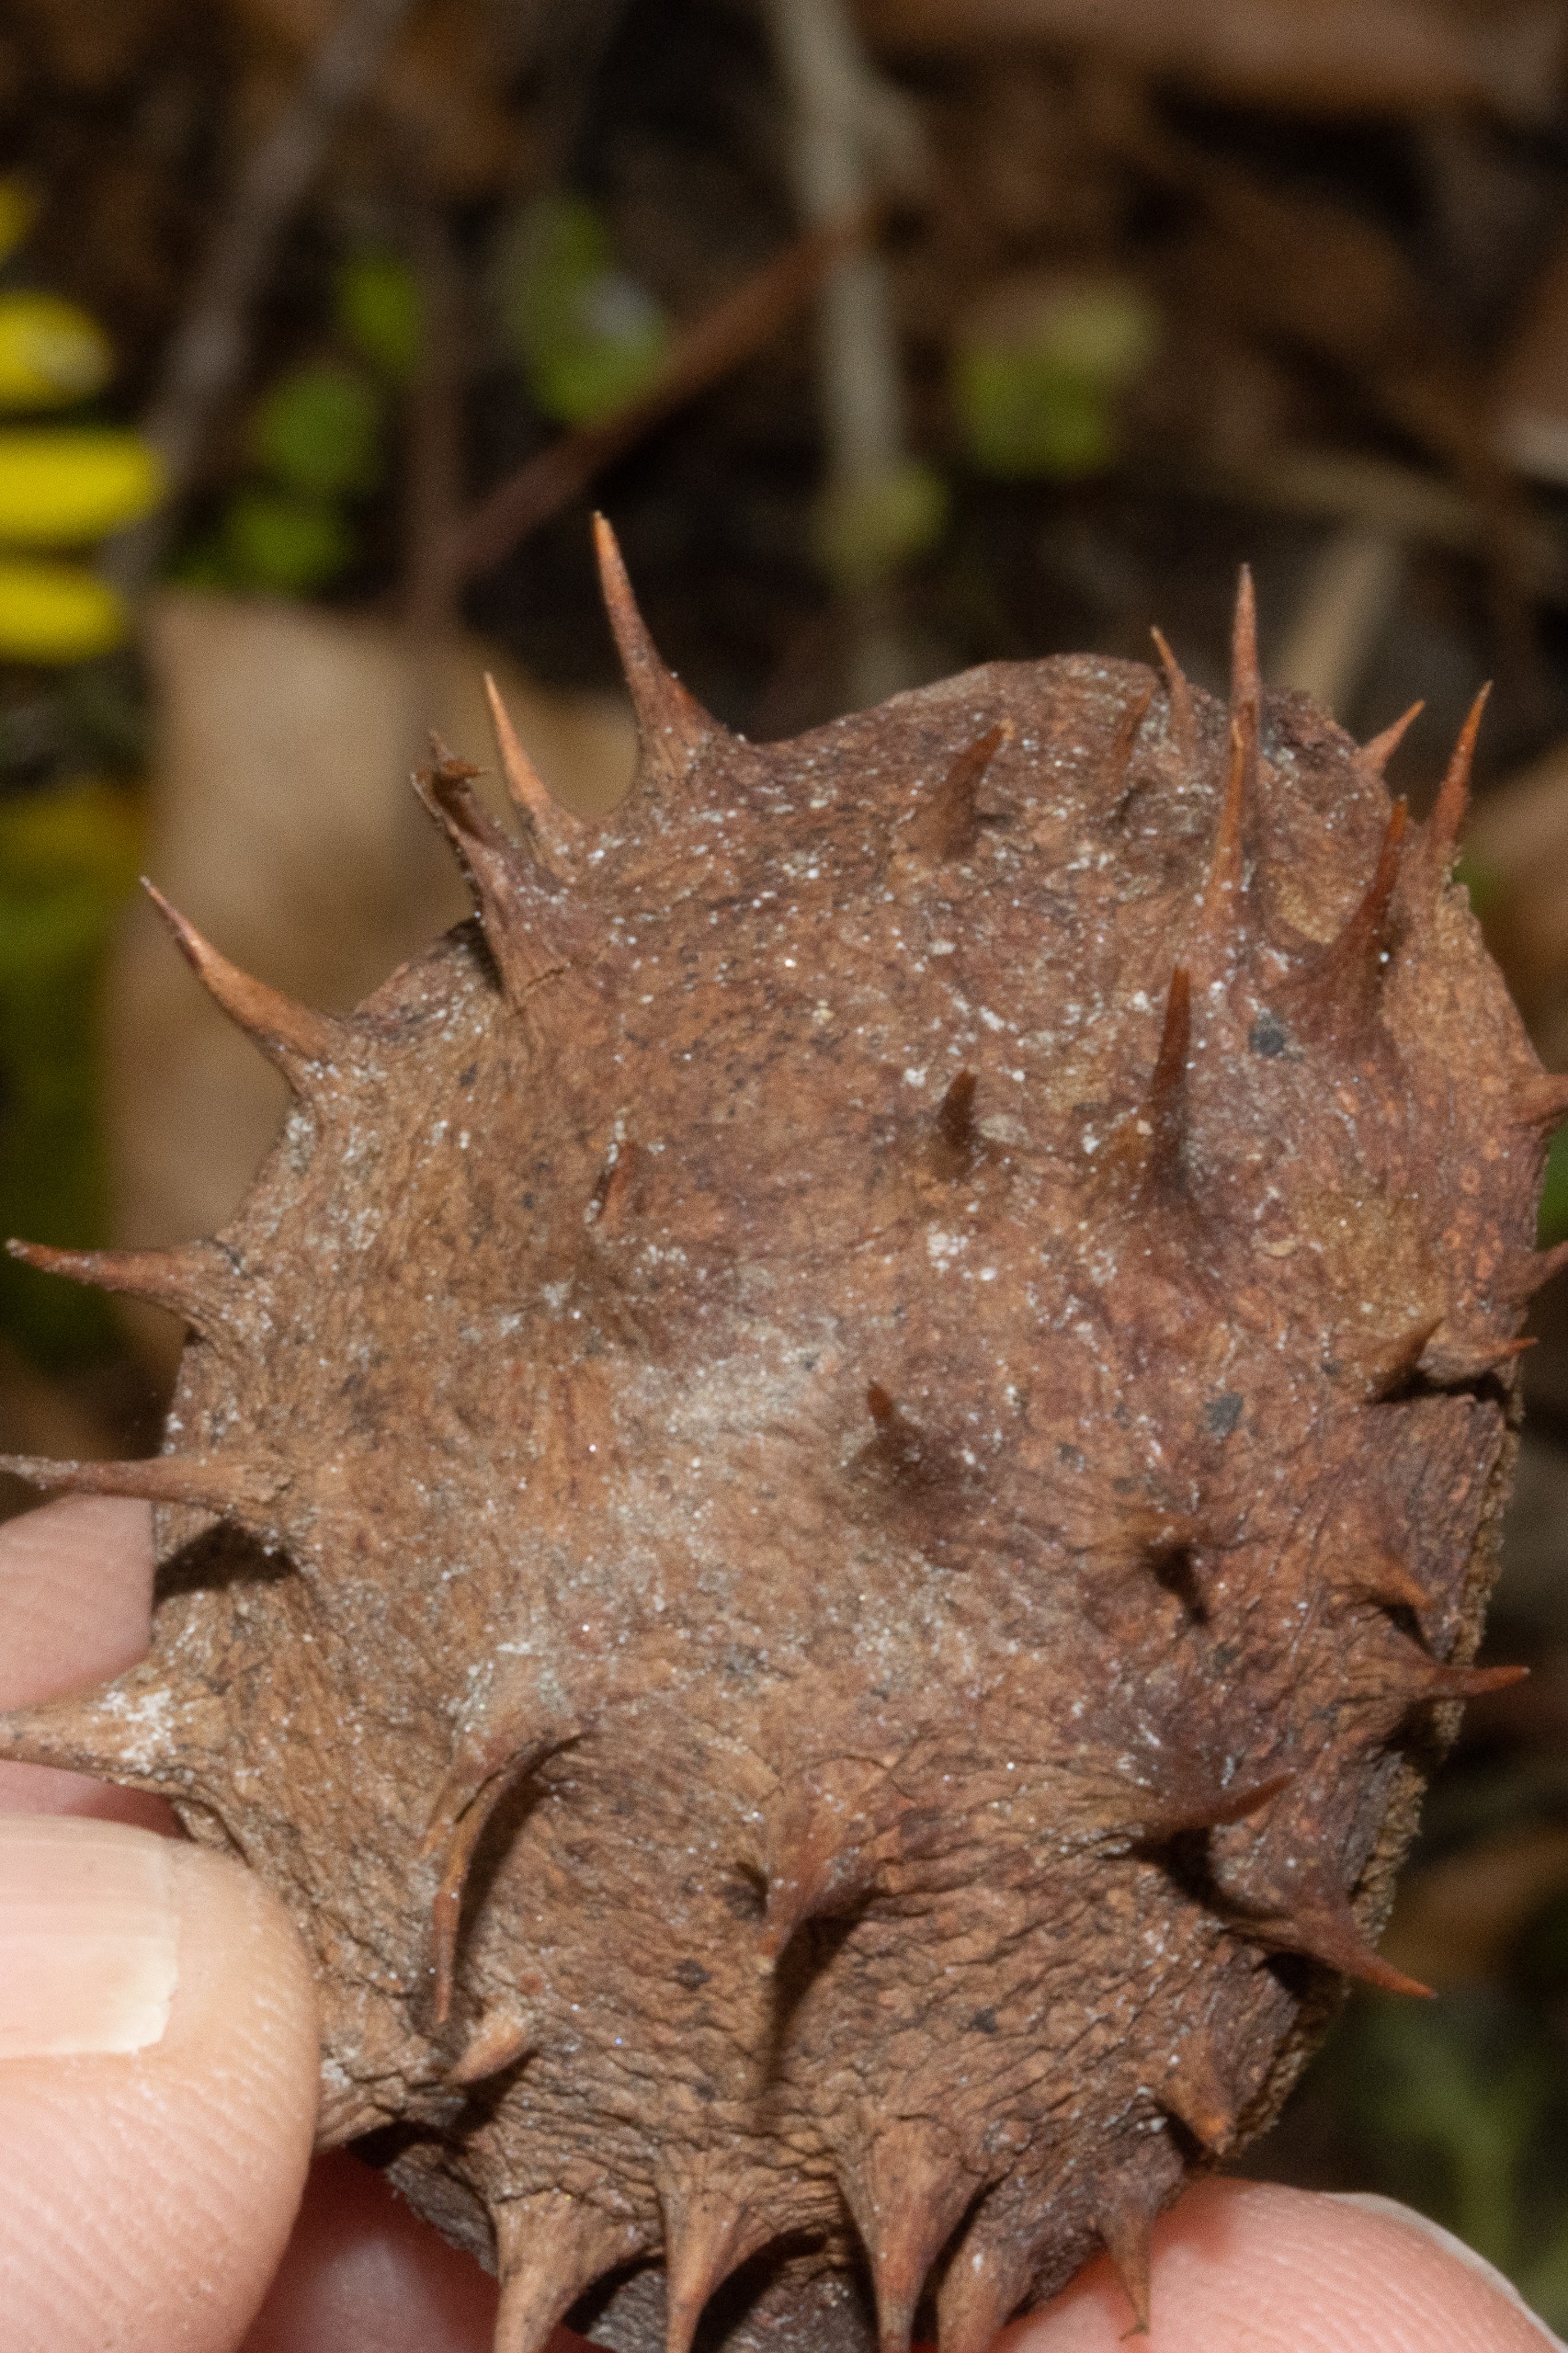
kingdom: Plantae
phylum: Tracheophyta
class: Magnoliopsida
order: Sapindales
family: Sapindaceae
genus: Aesculus
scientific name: Aesculus hippocastanum
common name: Hestekastanie
